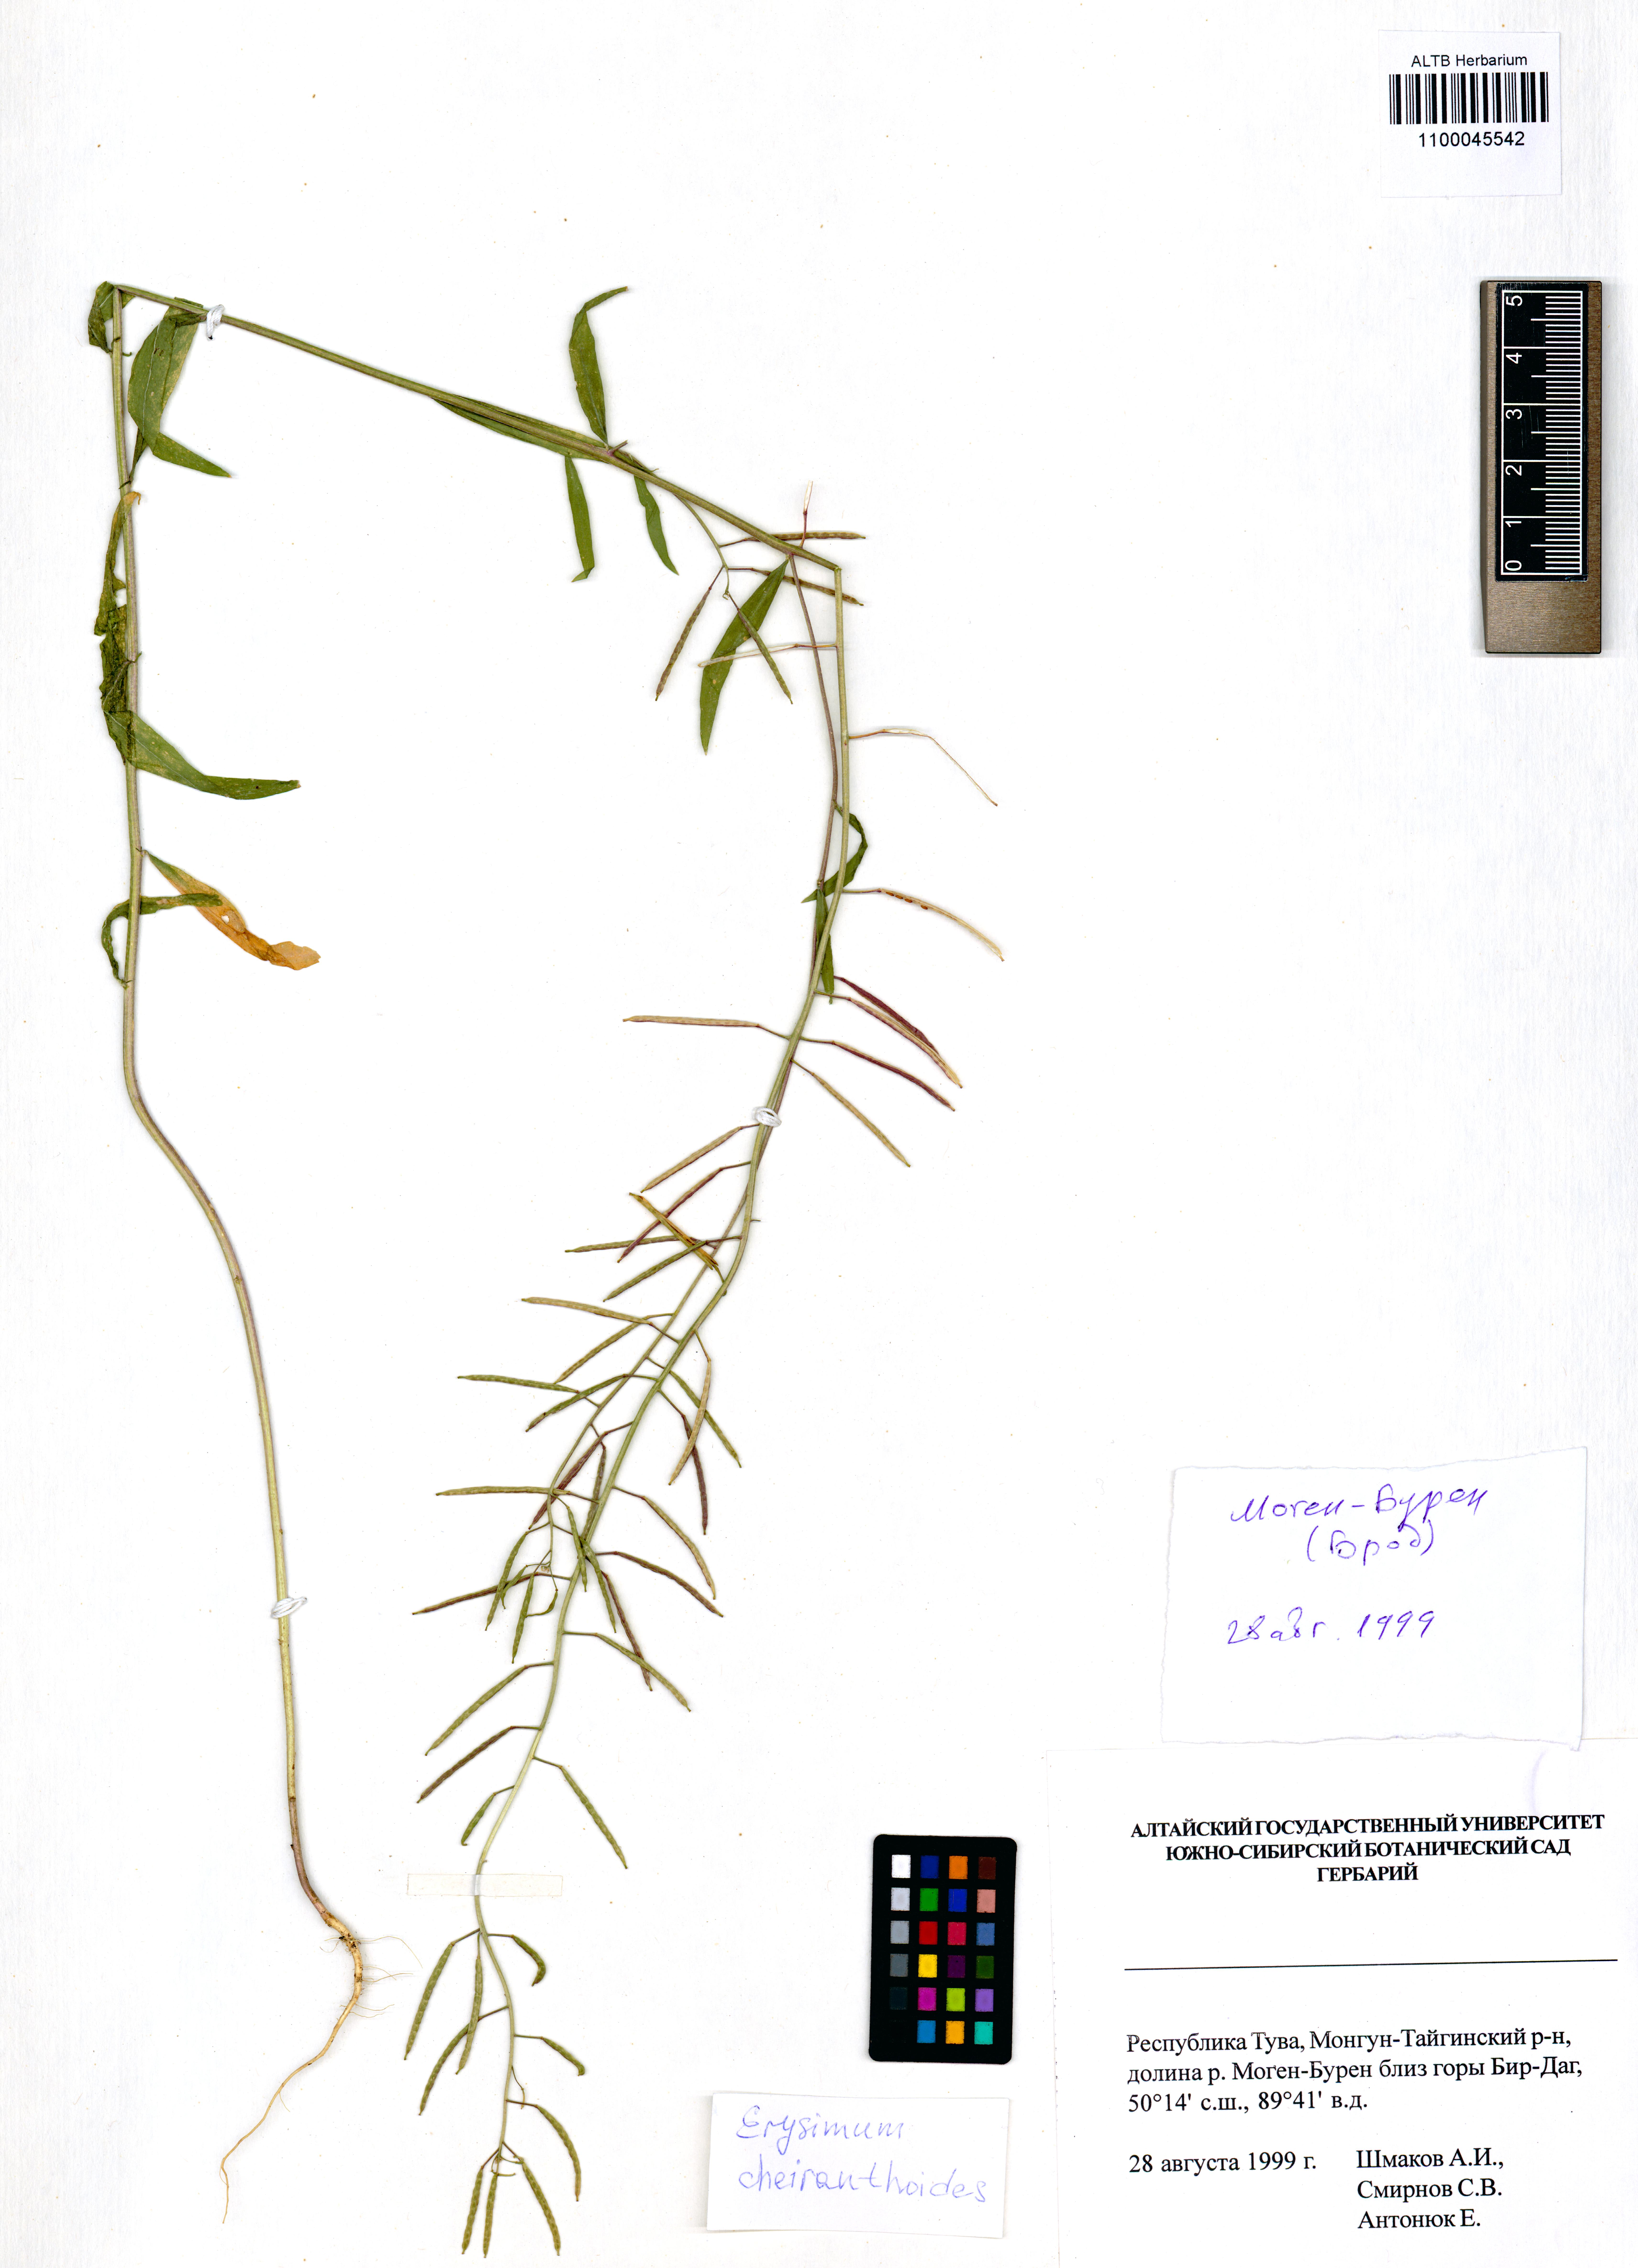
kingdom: Plantae
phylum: Tracheophyta
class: Magnoliopsida
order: Brassicales
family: Brassicaceae
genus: Erysimum
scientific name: Erysimum cheiranthoides
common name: Treacle mustard
